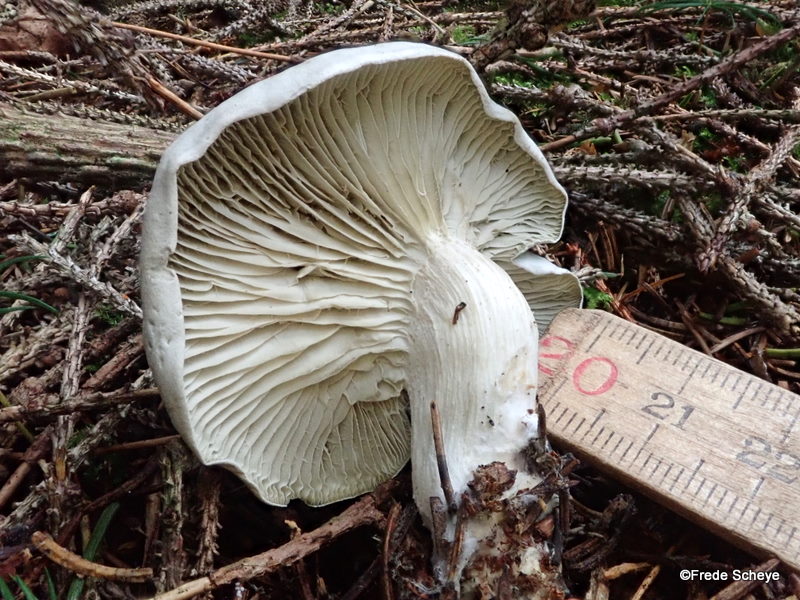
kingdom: Fungi
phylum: Basidiomycota
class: Agaricomycetes
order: Agaricales
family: Tricholomataceae
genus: Clitocybe
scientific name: Clitocybe odora
